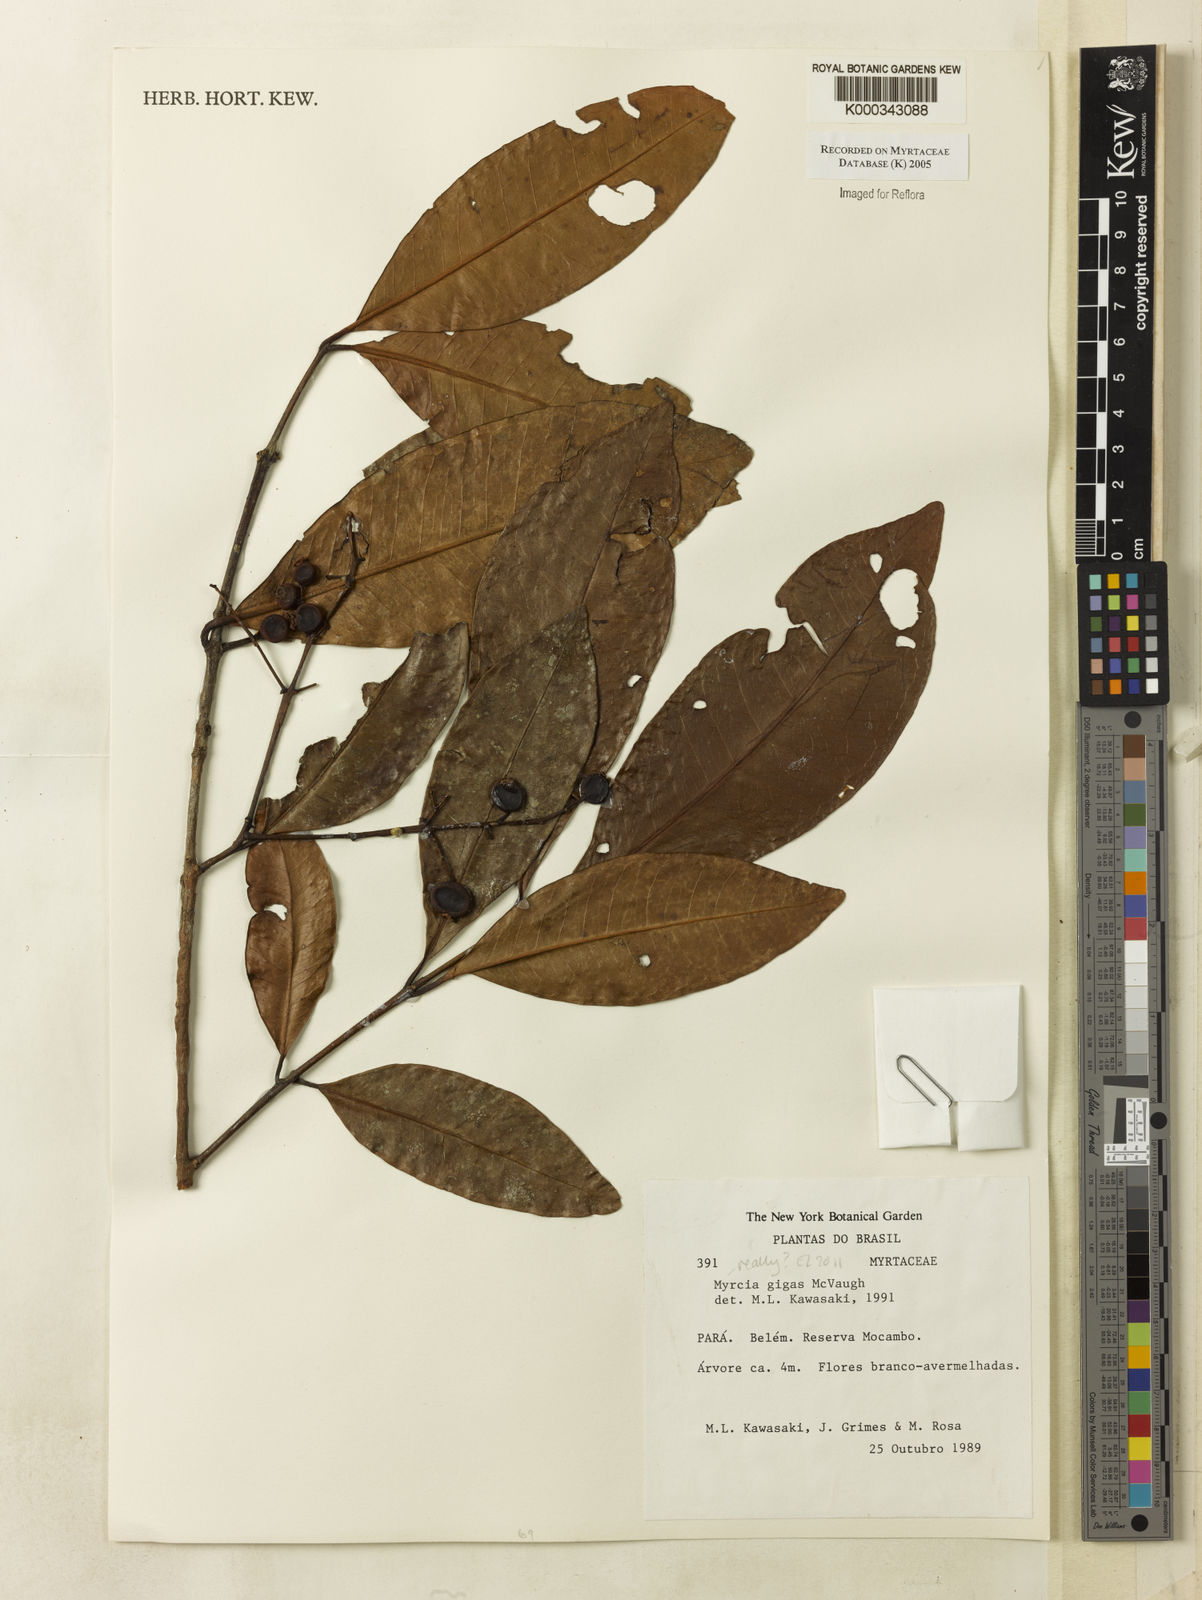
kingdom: Plantae
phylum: Tracheophyta
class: Magnoliopsida
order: Myrtales
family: Myrtaceae
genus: Myrcia
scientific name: Myrcia gigas
